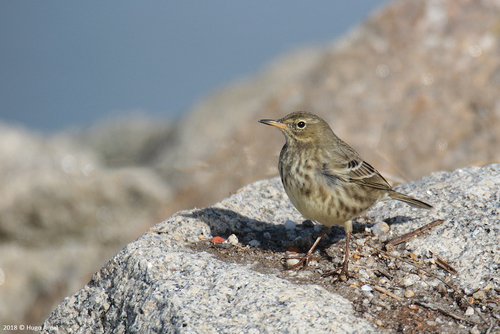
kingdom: Animalia
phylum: Chordata
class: Aves
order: Passeriformes
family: Motacillidae
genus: Anthus
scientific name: Anthus petrosus
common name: Eurasian rock pipit
